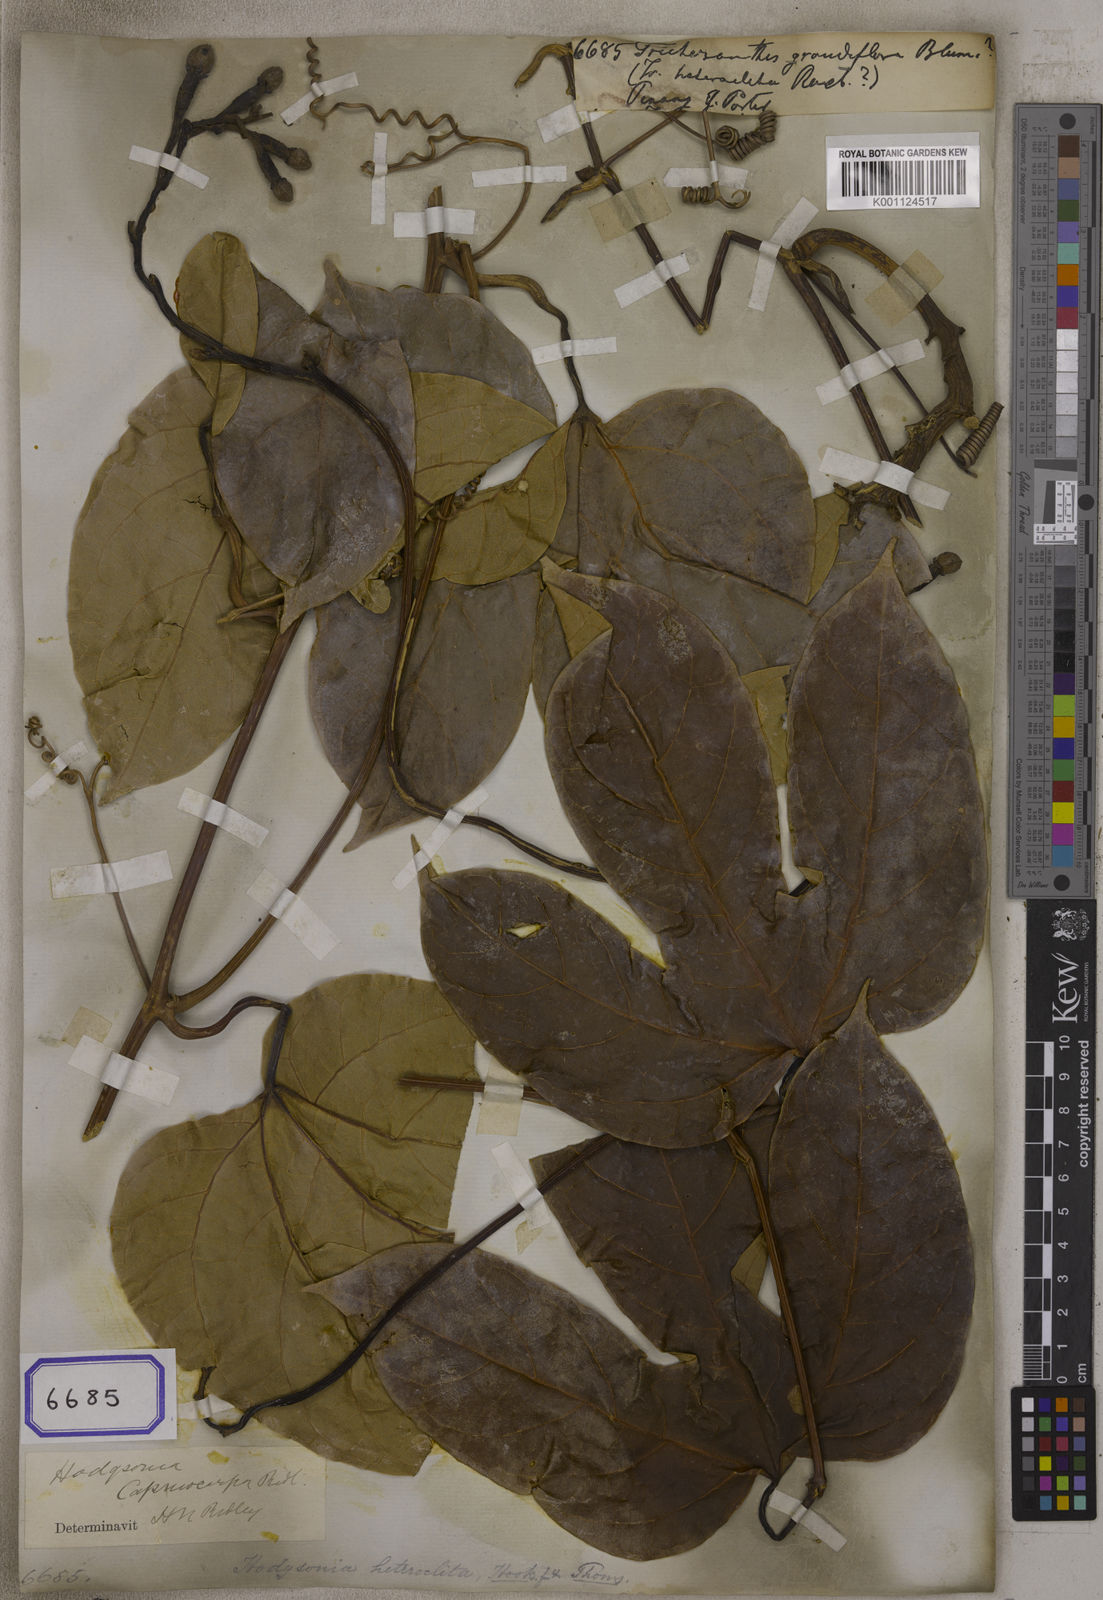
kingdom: Plantae
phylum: Tracheophyta
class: Magnoliopsida
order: Cucurbitales
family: Cucurbitaceae
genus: Trichosanthes
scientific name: Trichosanthes
